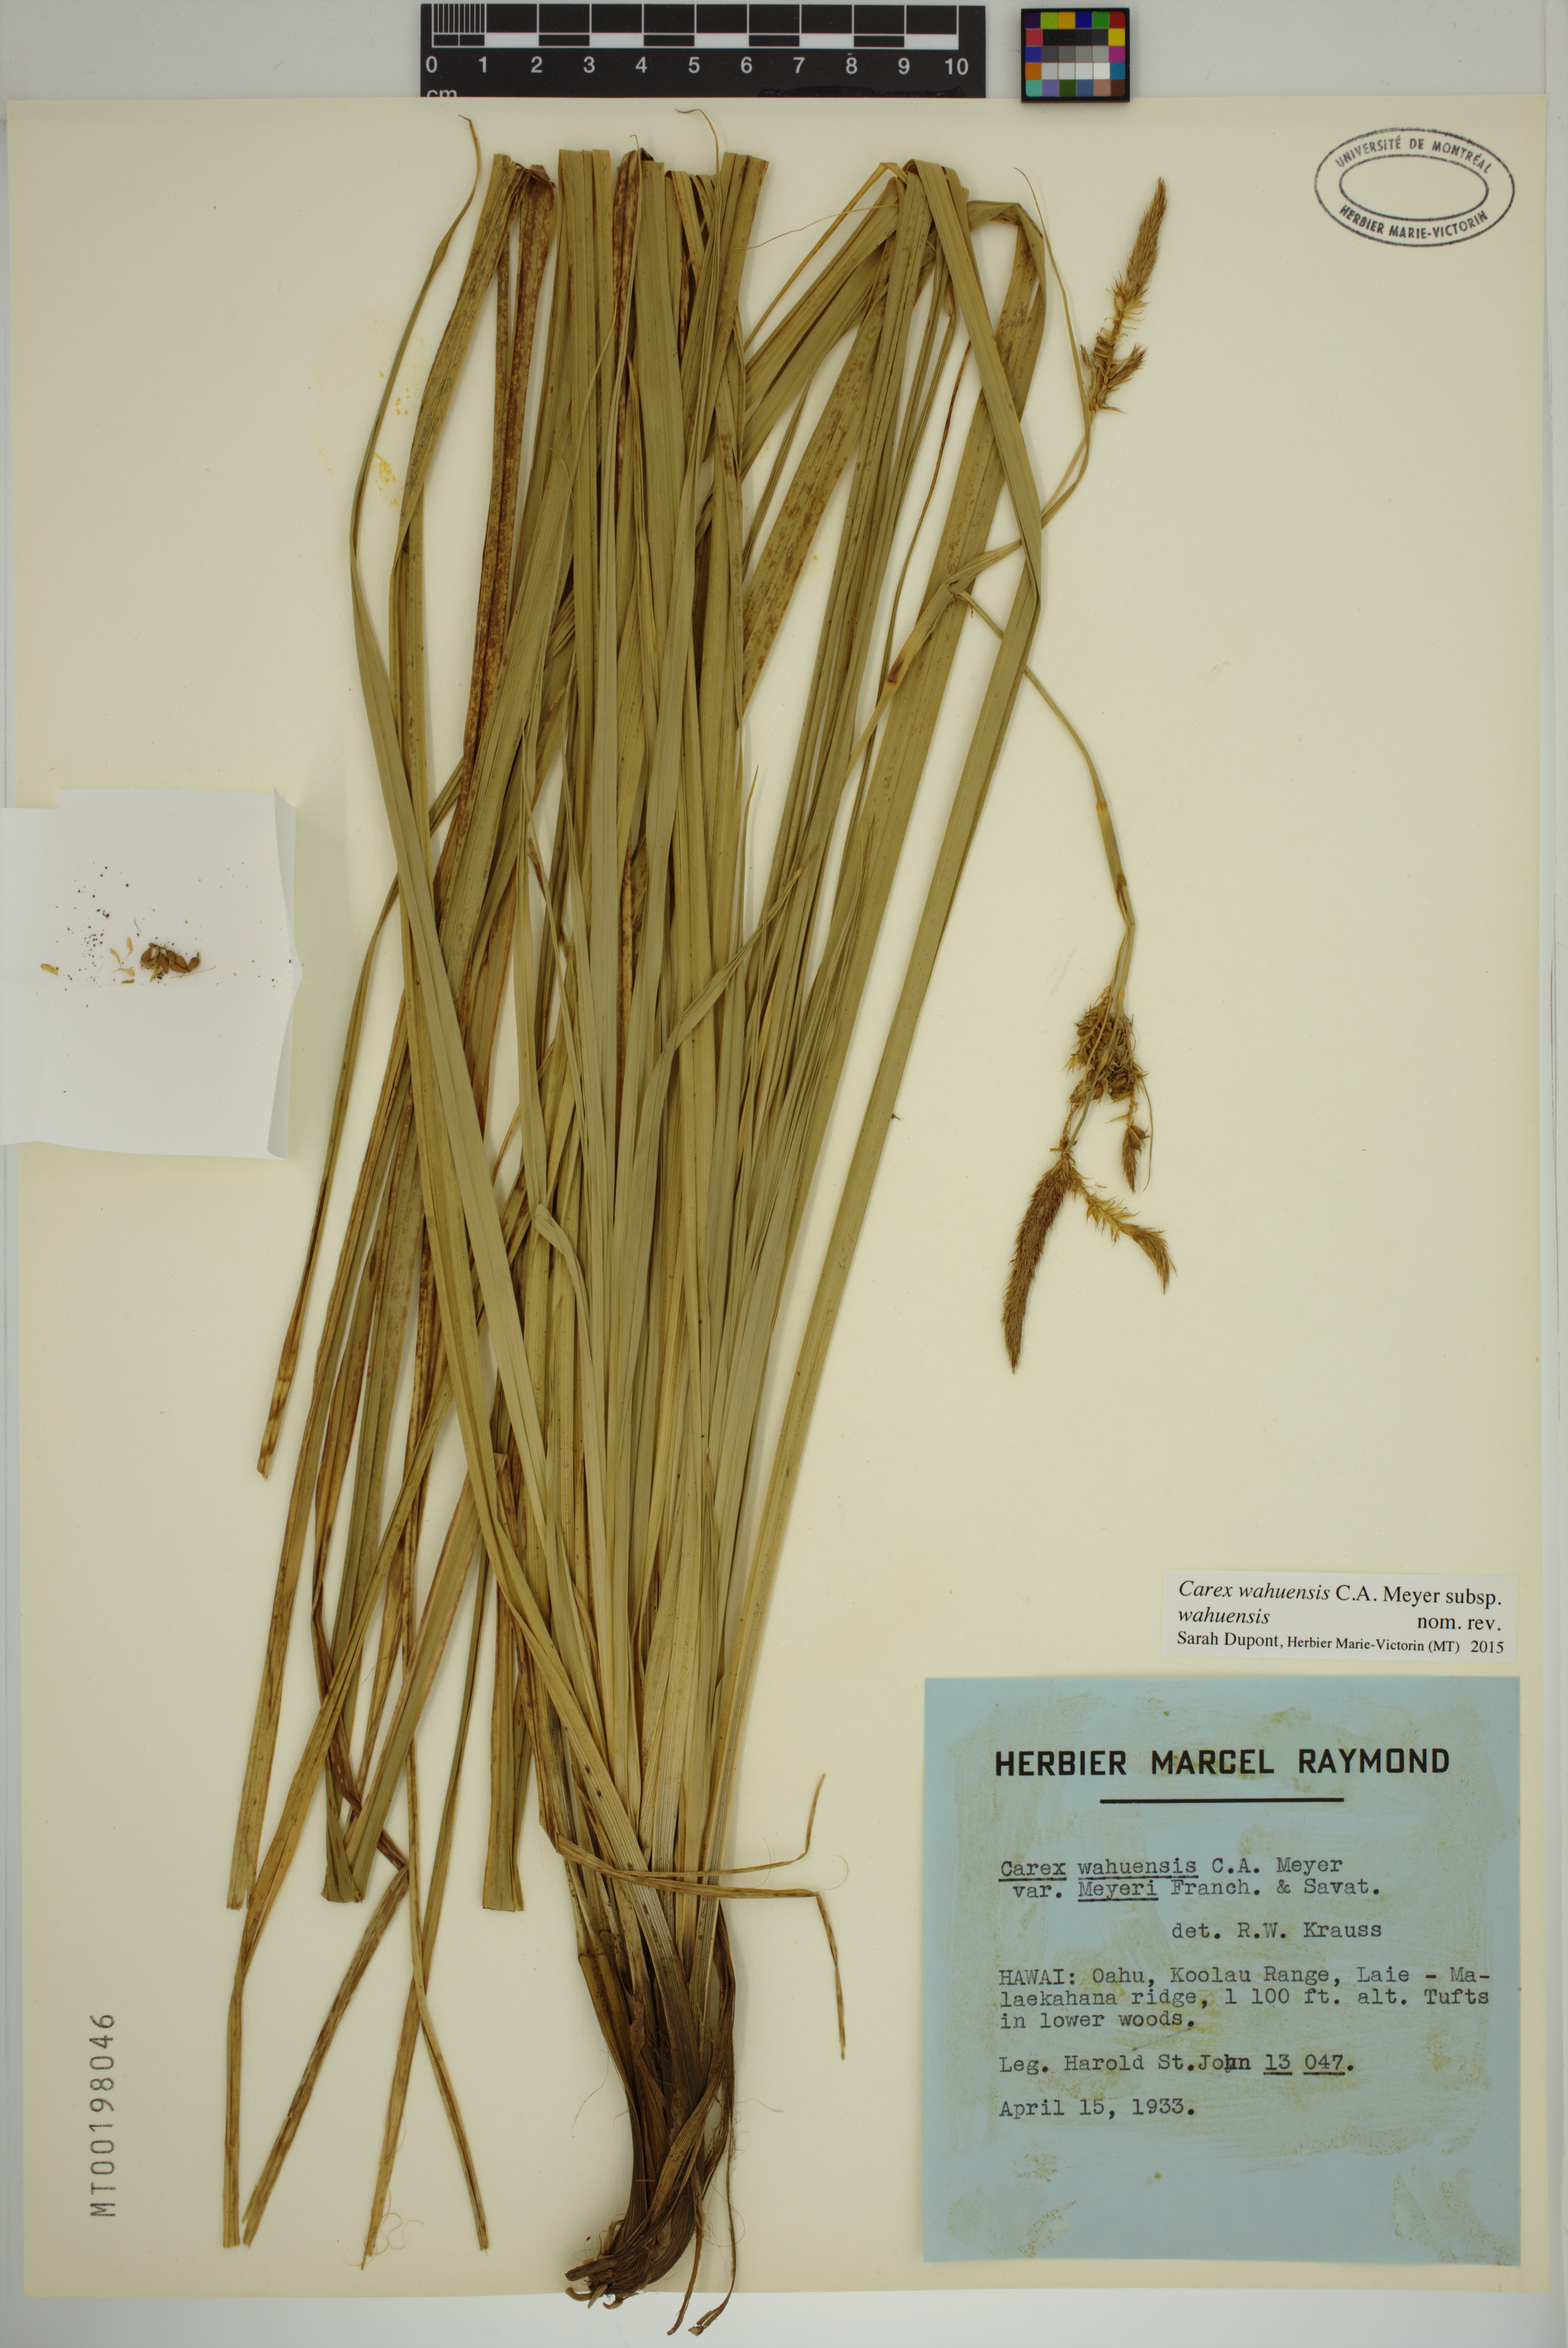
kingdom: Plantae
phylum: Tracheophyta
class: Liliopsida
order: Poales
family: Cyperaceae
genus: Carex
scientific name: Carex wahuensis
